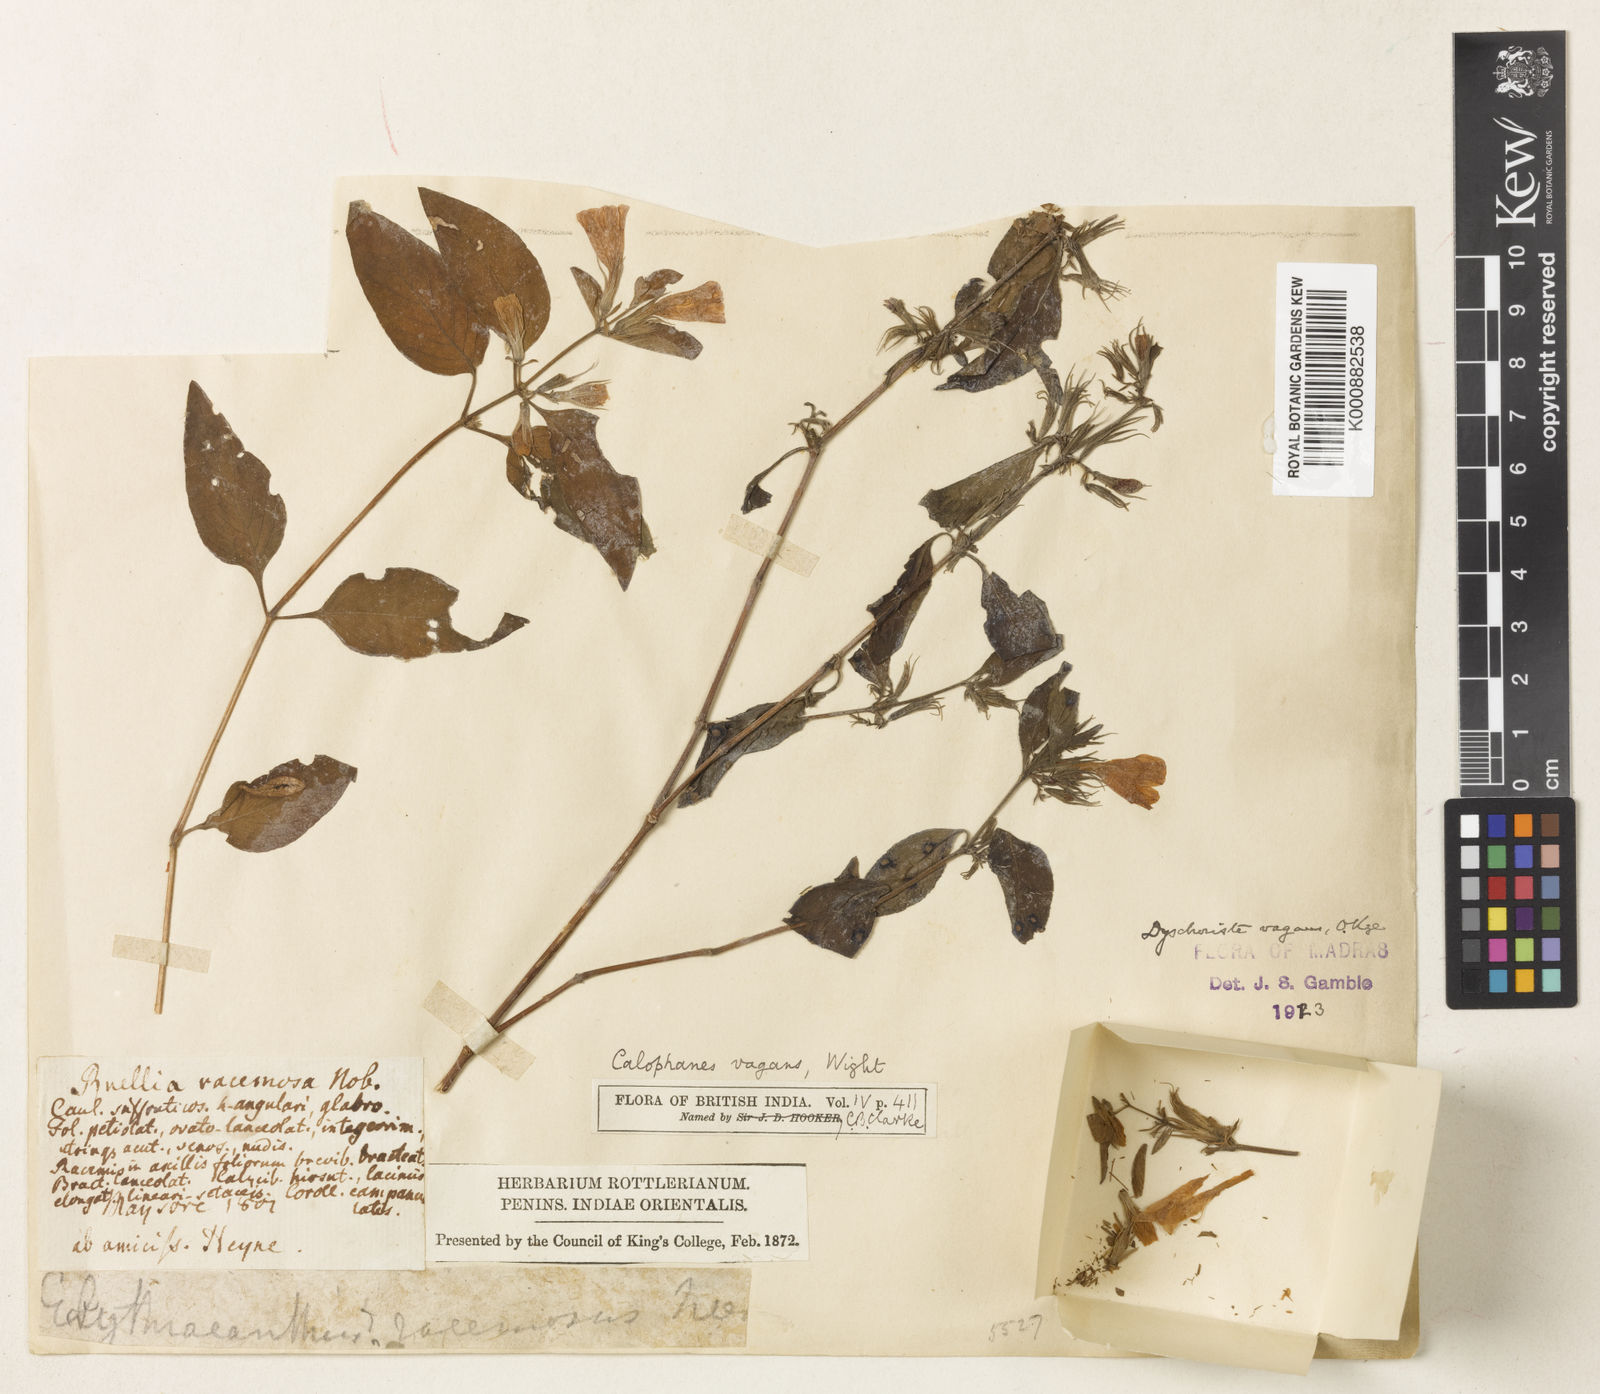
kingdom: Plantae
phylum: Tracheophyta
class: Magnoliopsida
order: Lamiales
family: Acanthaceae
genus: Dyschoriste
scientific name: Dyschoriste vagans
